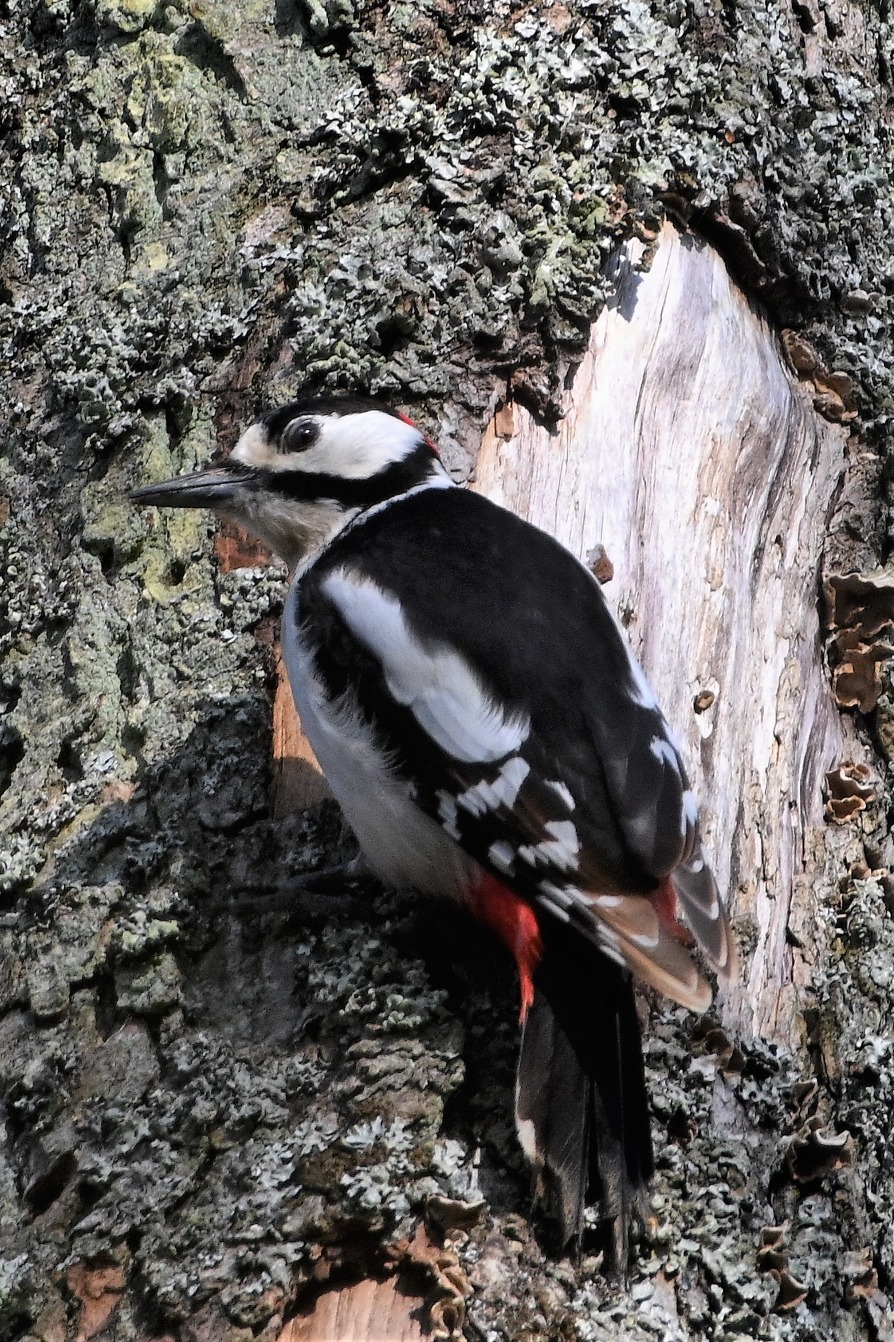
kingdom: Animalia
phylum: Chordata
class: Aves
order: Piciformes
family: Picidae
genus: Dendrocopos
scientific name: Dendrocopos major
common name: Stor flagspætte
